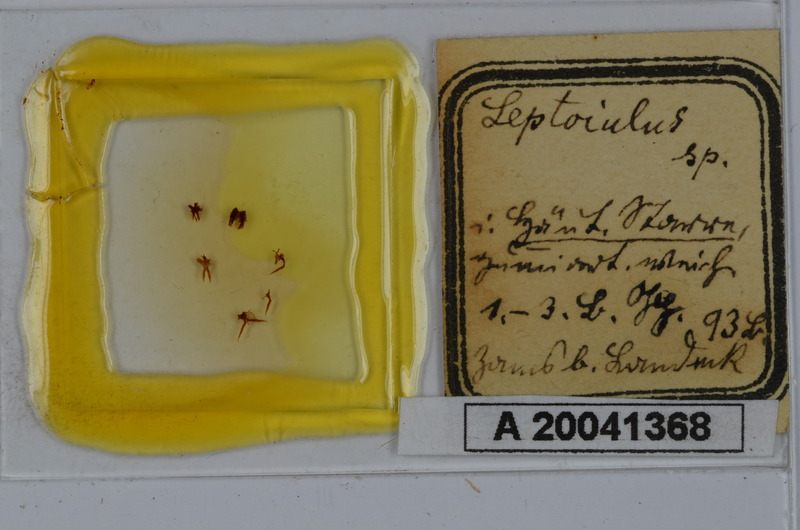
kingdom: Animalia
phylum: Arthropoda
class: Diplopoda
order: Julida
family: Julidae
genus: Leptoiulus
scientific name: Leptoiulus
